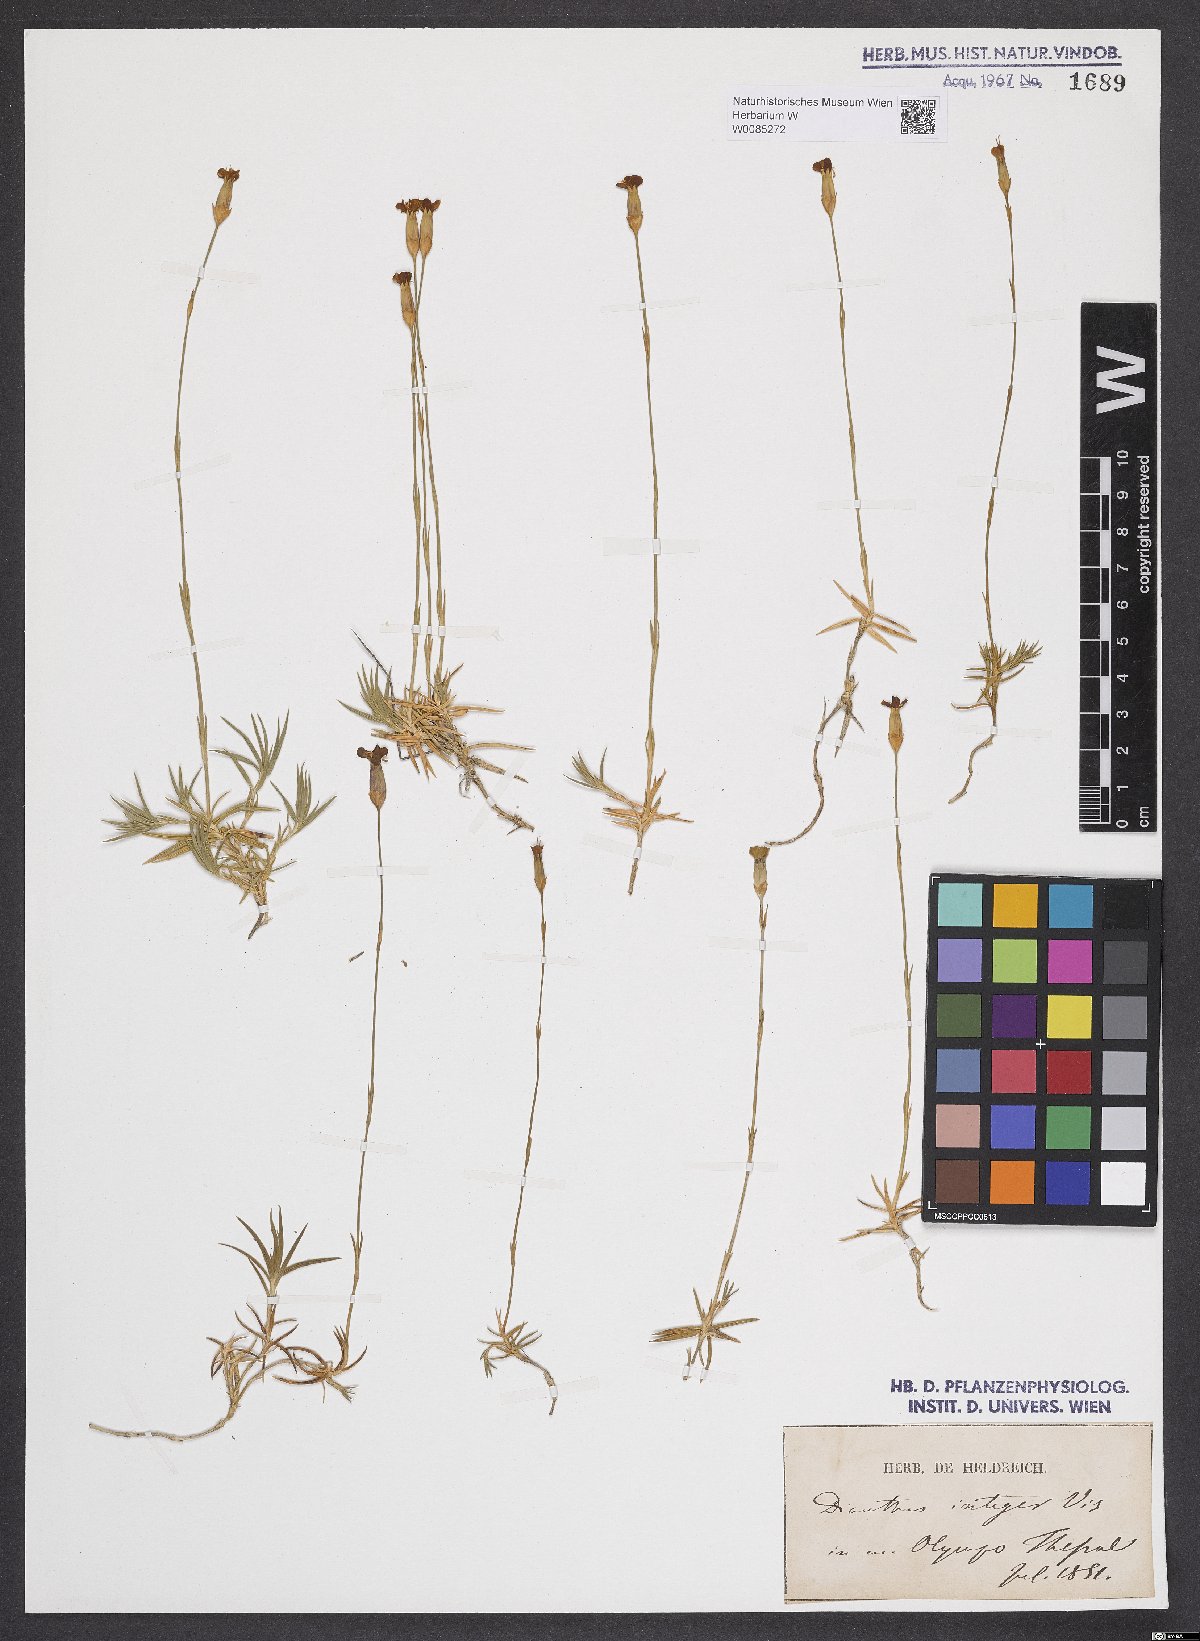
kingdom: Plantae
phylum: Tracheophyta
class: Magnoliopsida
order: Caryophyllales
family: Caryophyllaceae
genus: Dianthus
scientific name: Dianthus petraeus
